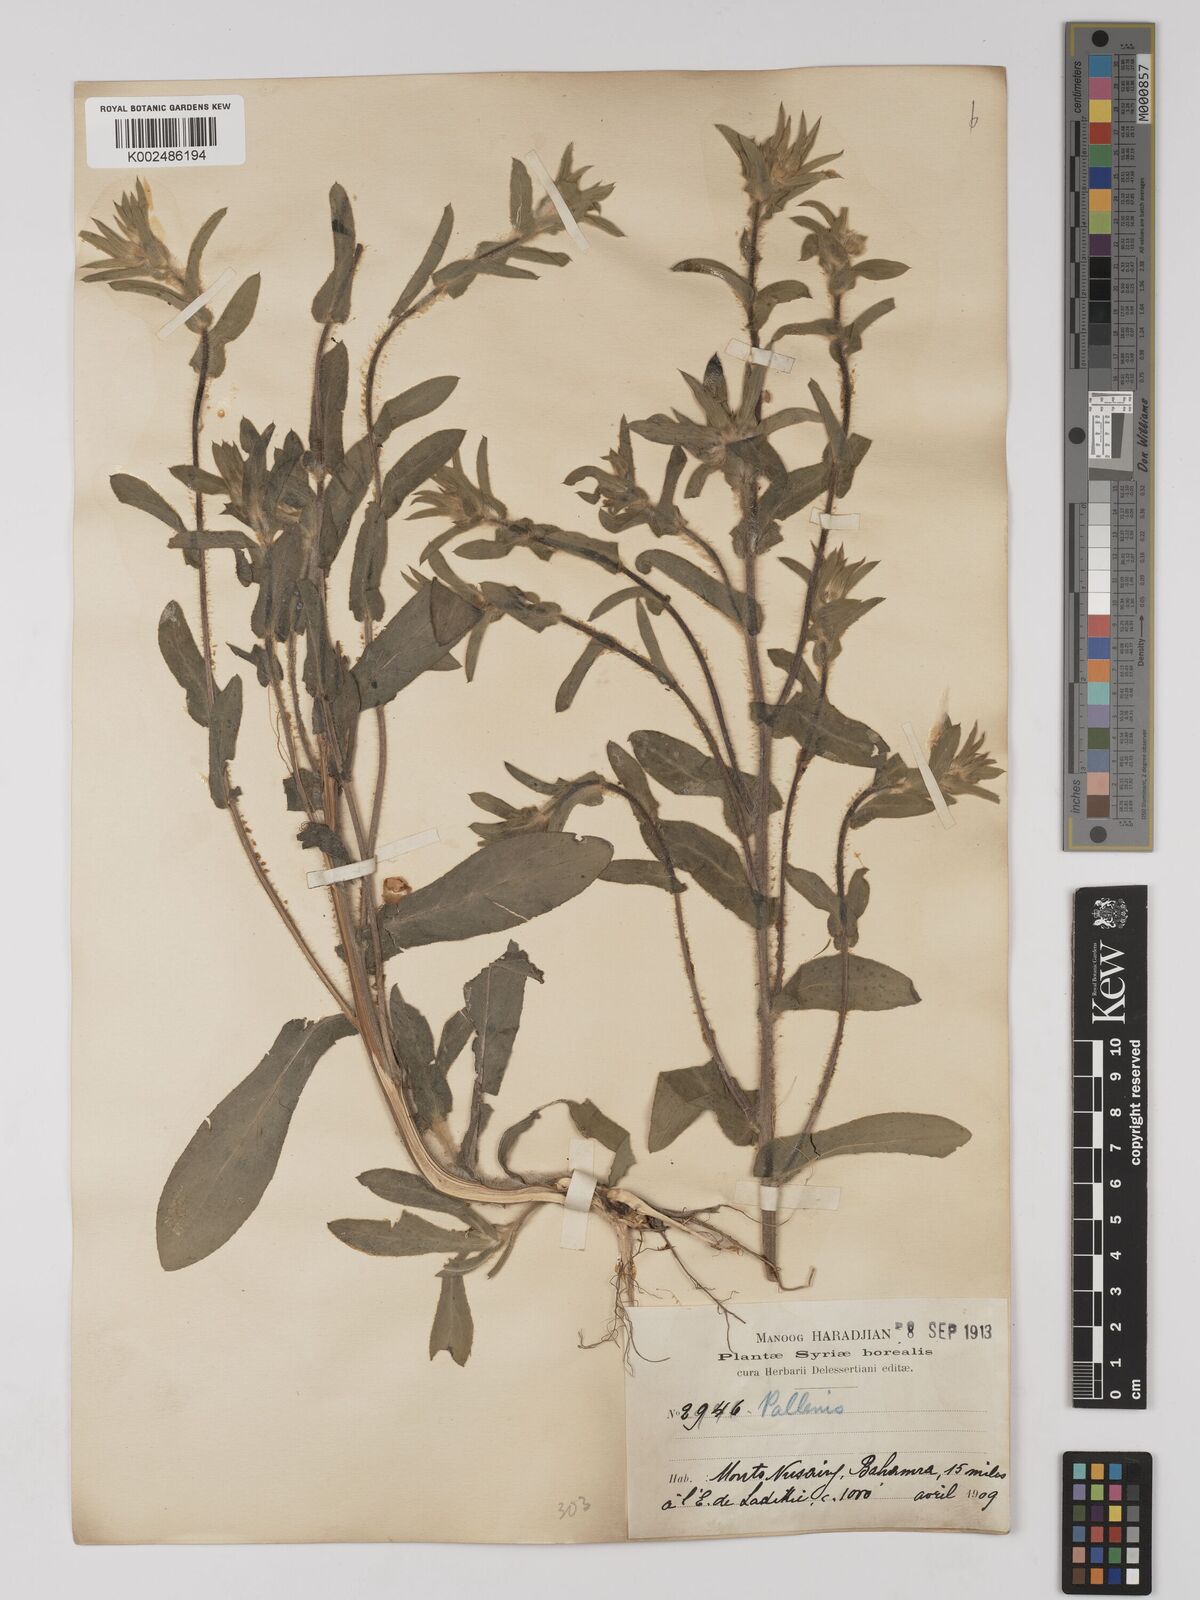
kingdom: Plantae
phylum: Tracheophyta
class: Magnoliopsida
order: Asterales
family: Asteraceae
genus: Pallenis
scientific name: Pallenis spinosa
